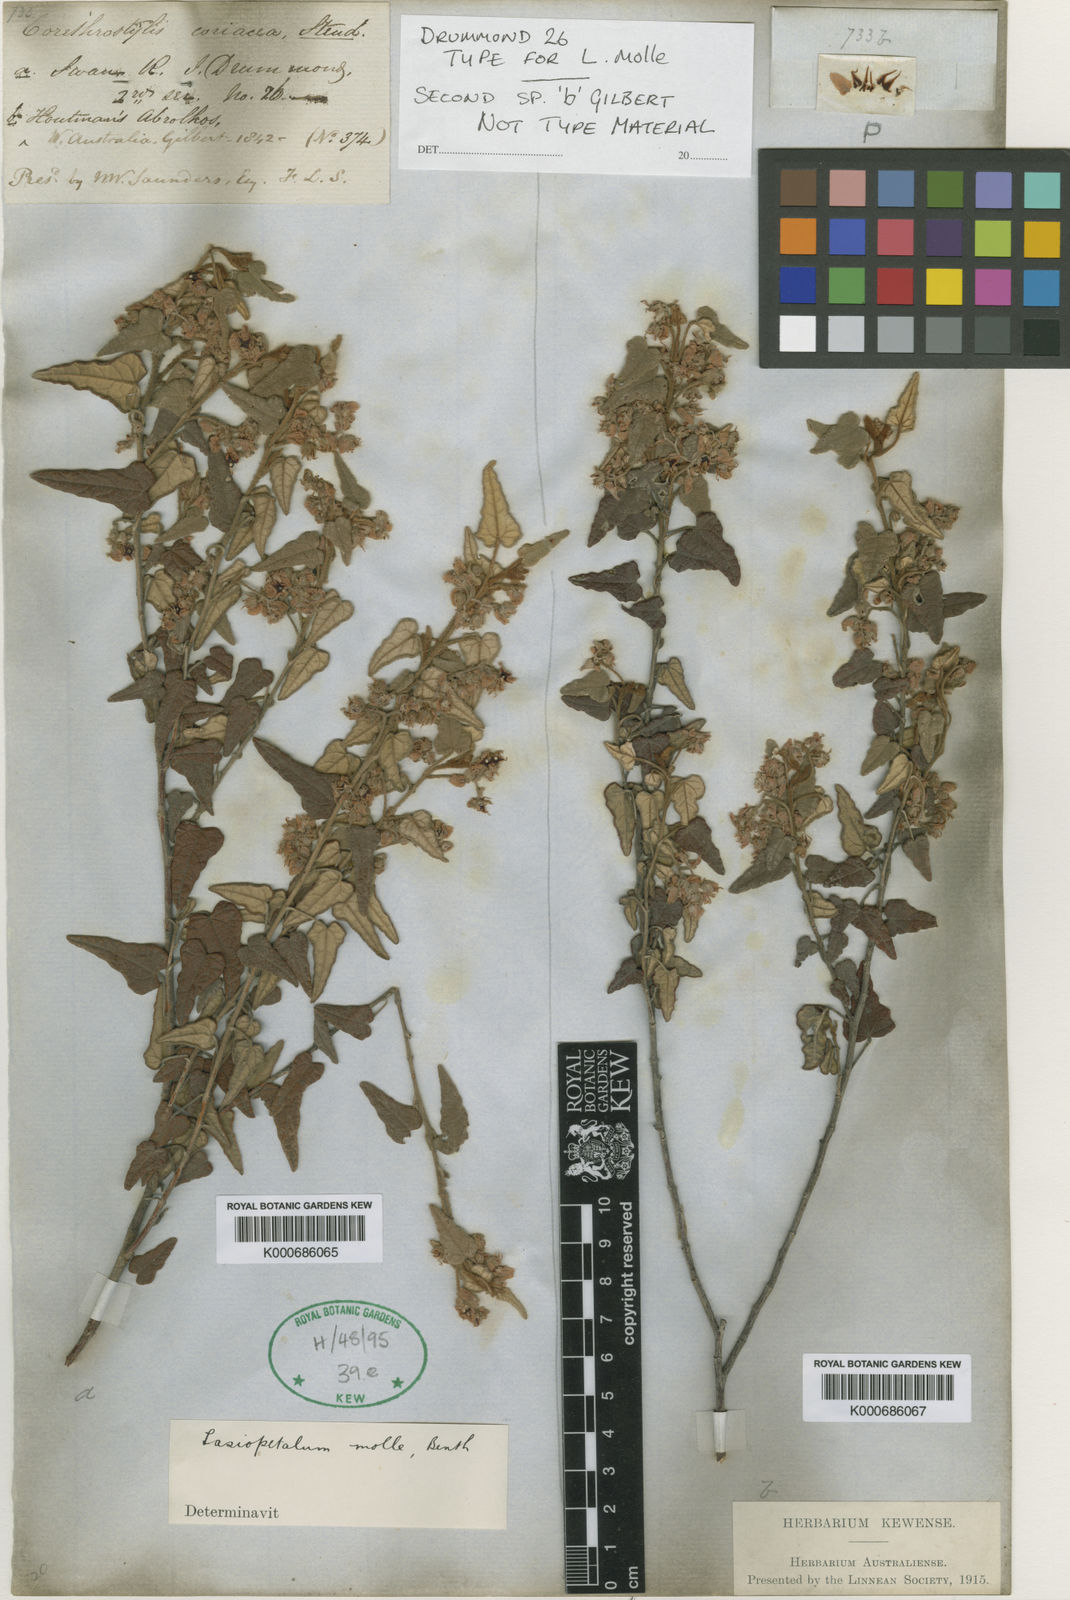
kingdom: Plantae
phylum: Tracheophyta
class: Magnoliopsida
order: Malvales
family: Malvaceae
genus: Lasiopetalum
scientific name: Lasiopetalum molle
